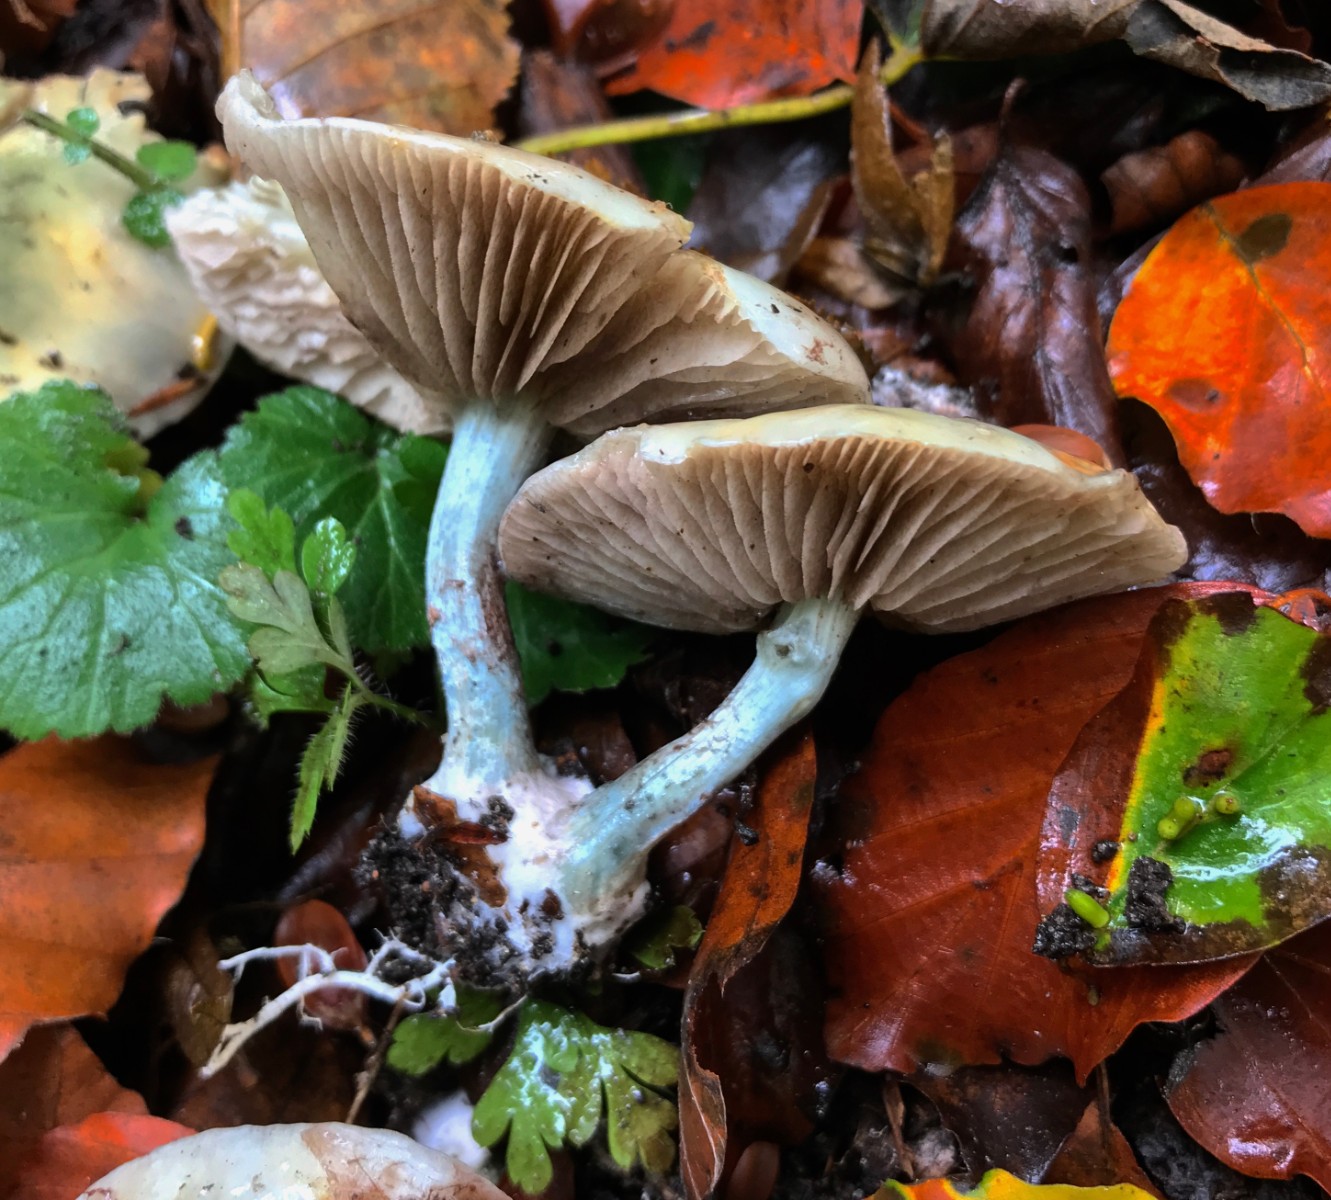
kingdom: Fungi
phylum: Basidiomycota
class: Agaricomycetes
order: Agaricales
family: Strophariaceae
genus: Stropharia
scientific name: Stropharia cyanea
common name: blågrøn bredblad
